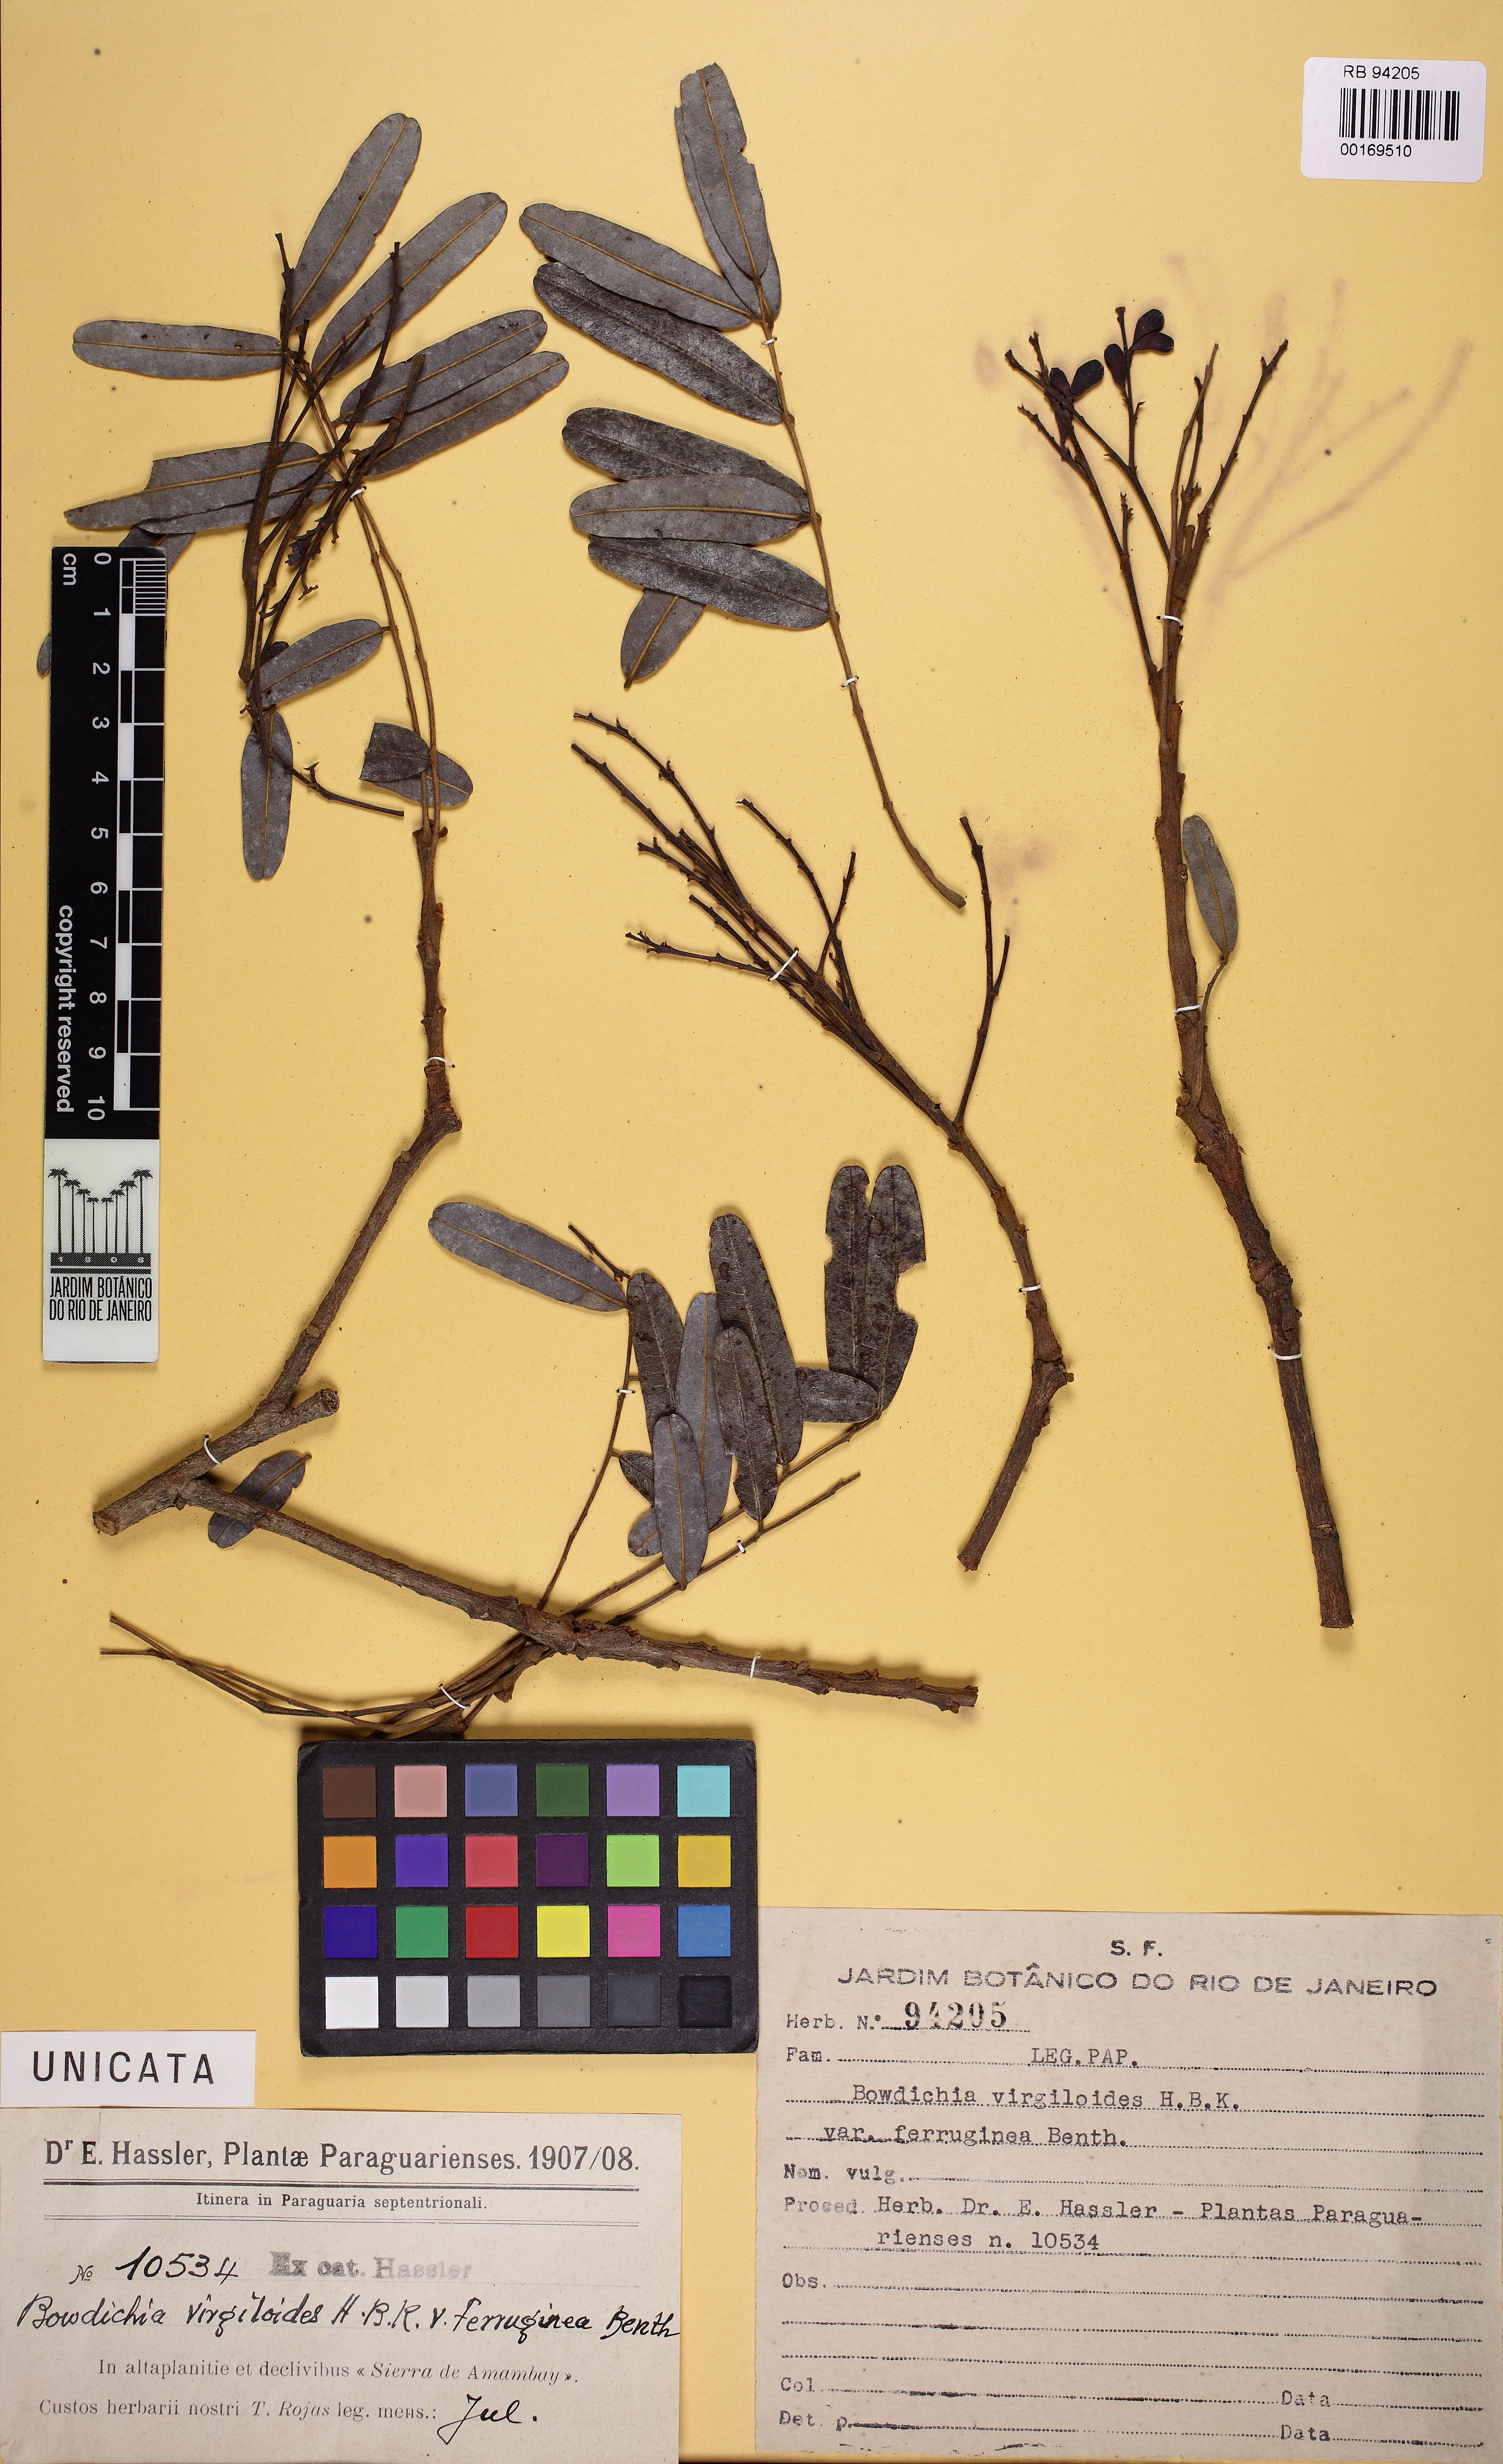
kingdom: Plantae
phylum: Tracheophyta
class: Magnoliopsida
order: Fabales
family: Fabaceae
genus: Bowdichia
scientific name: Bowdichia virgilioides
